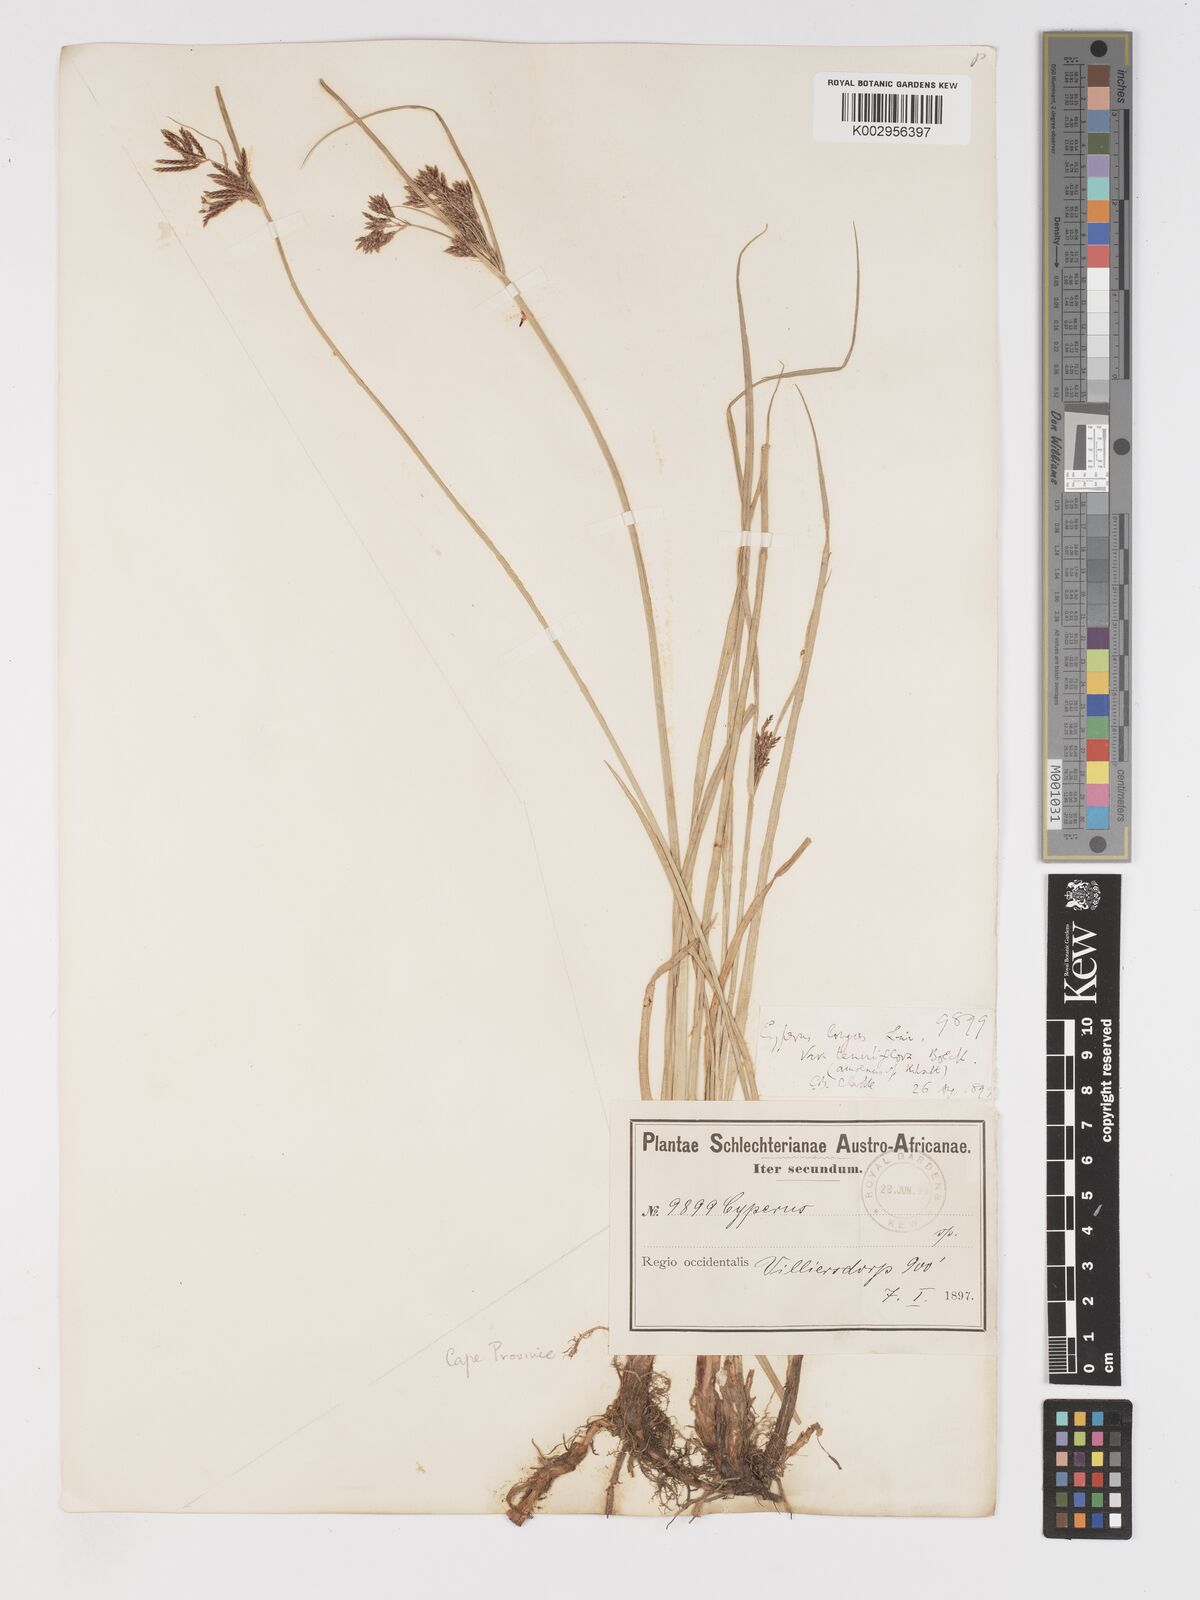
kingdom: Plantae
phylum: Tracheophyta
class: Liliopsida
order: Poales
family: Cyperaceae
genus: Cyperus
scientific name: Cyperus longus
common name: Galingale
